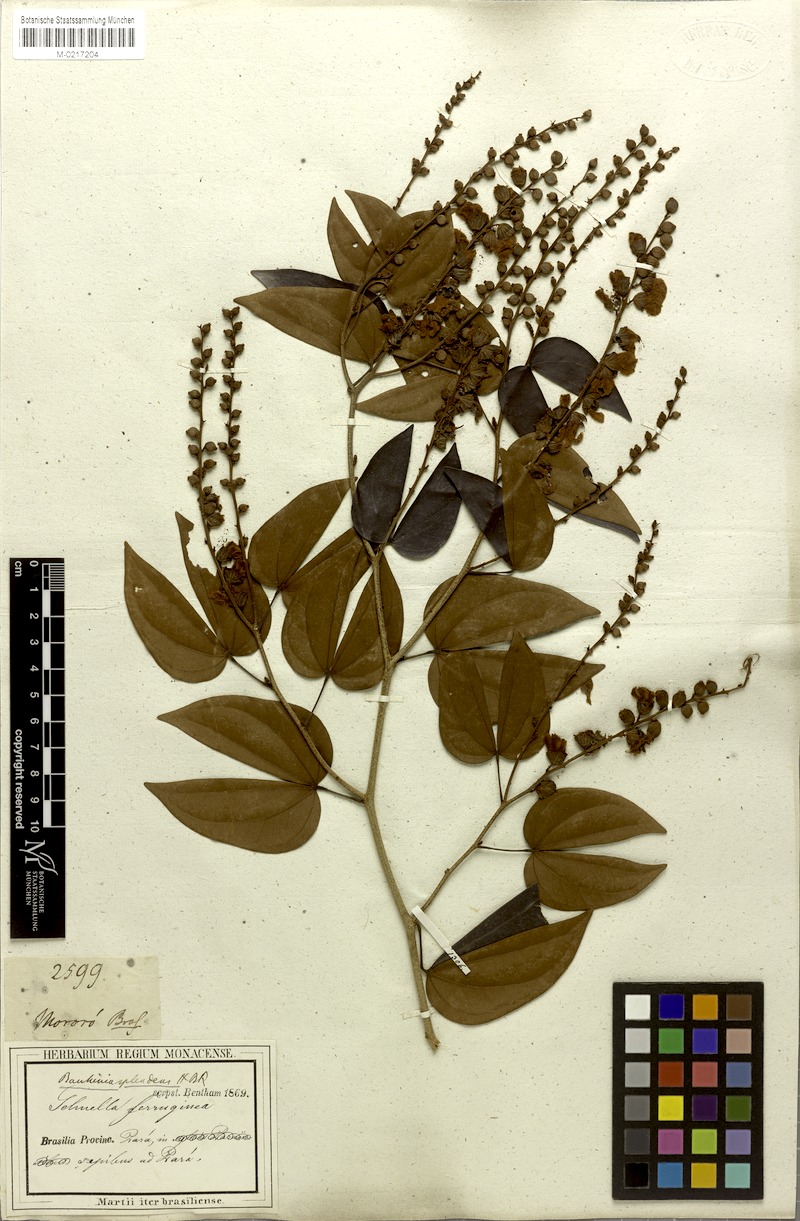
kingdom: Plantae
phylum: Tracheophyta
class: Magnoliopsida
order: Fabales
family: Fabaceae
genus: Schnella
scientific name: Schnella splendens
